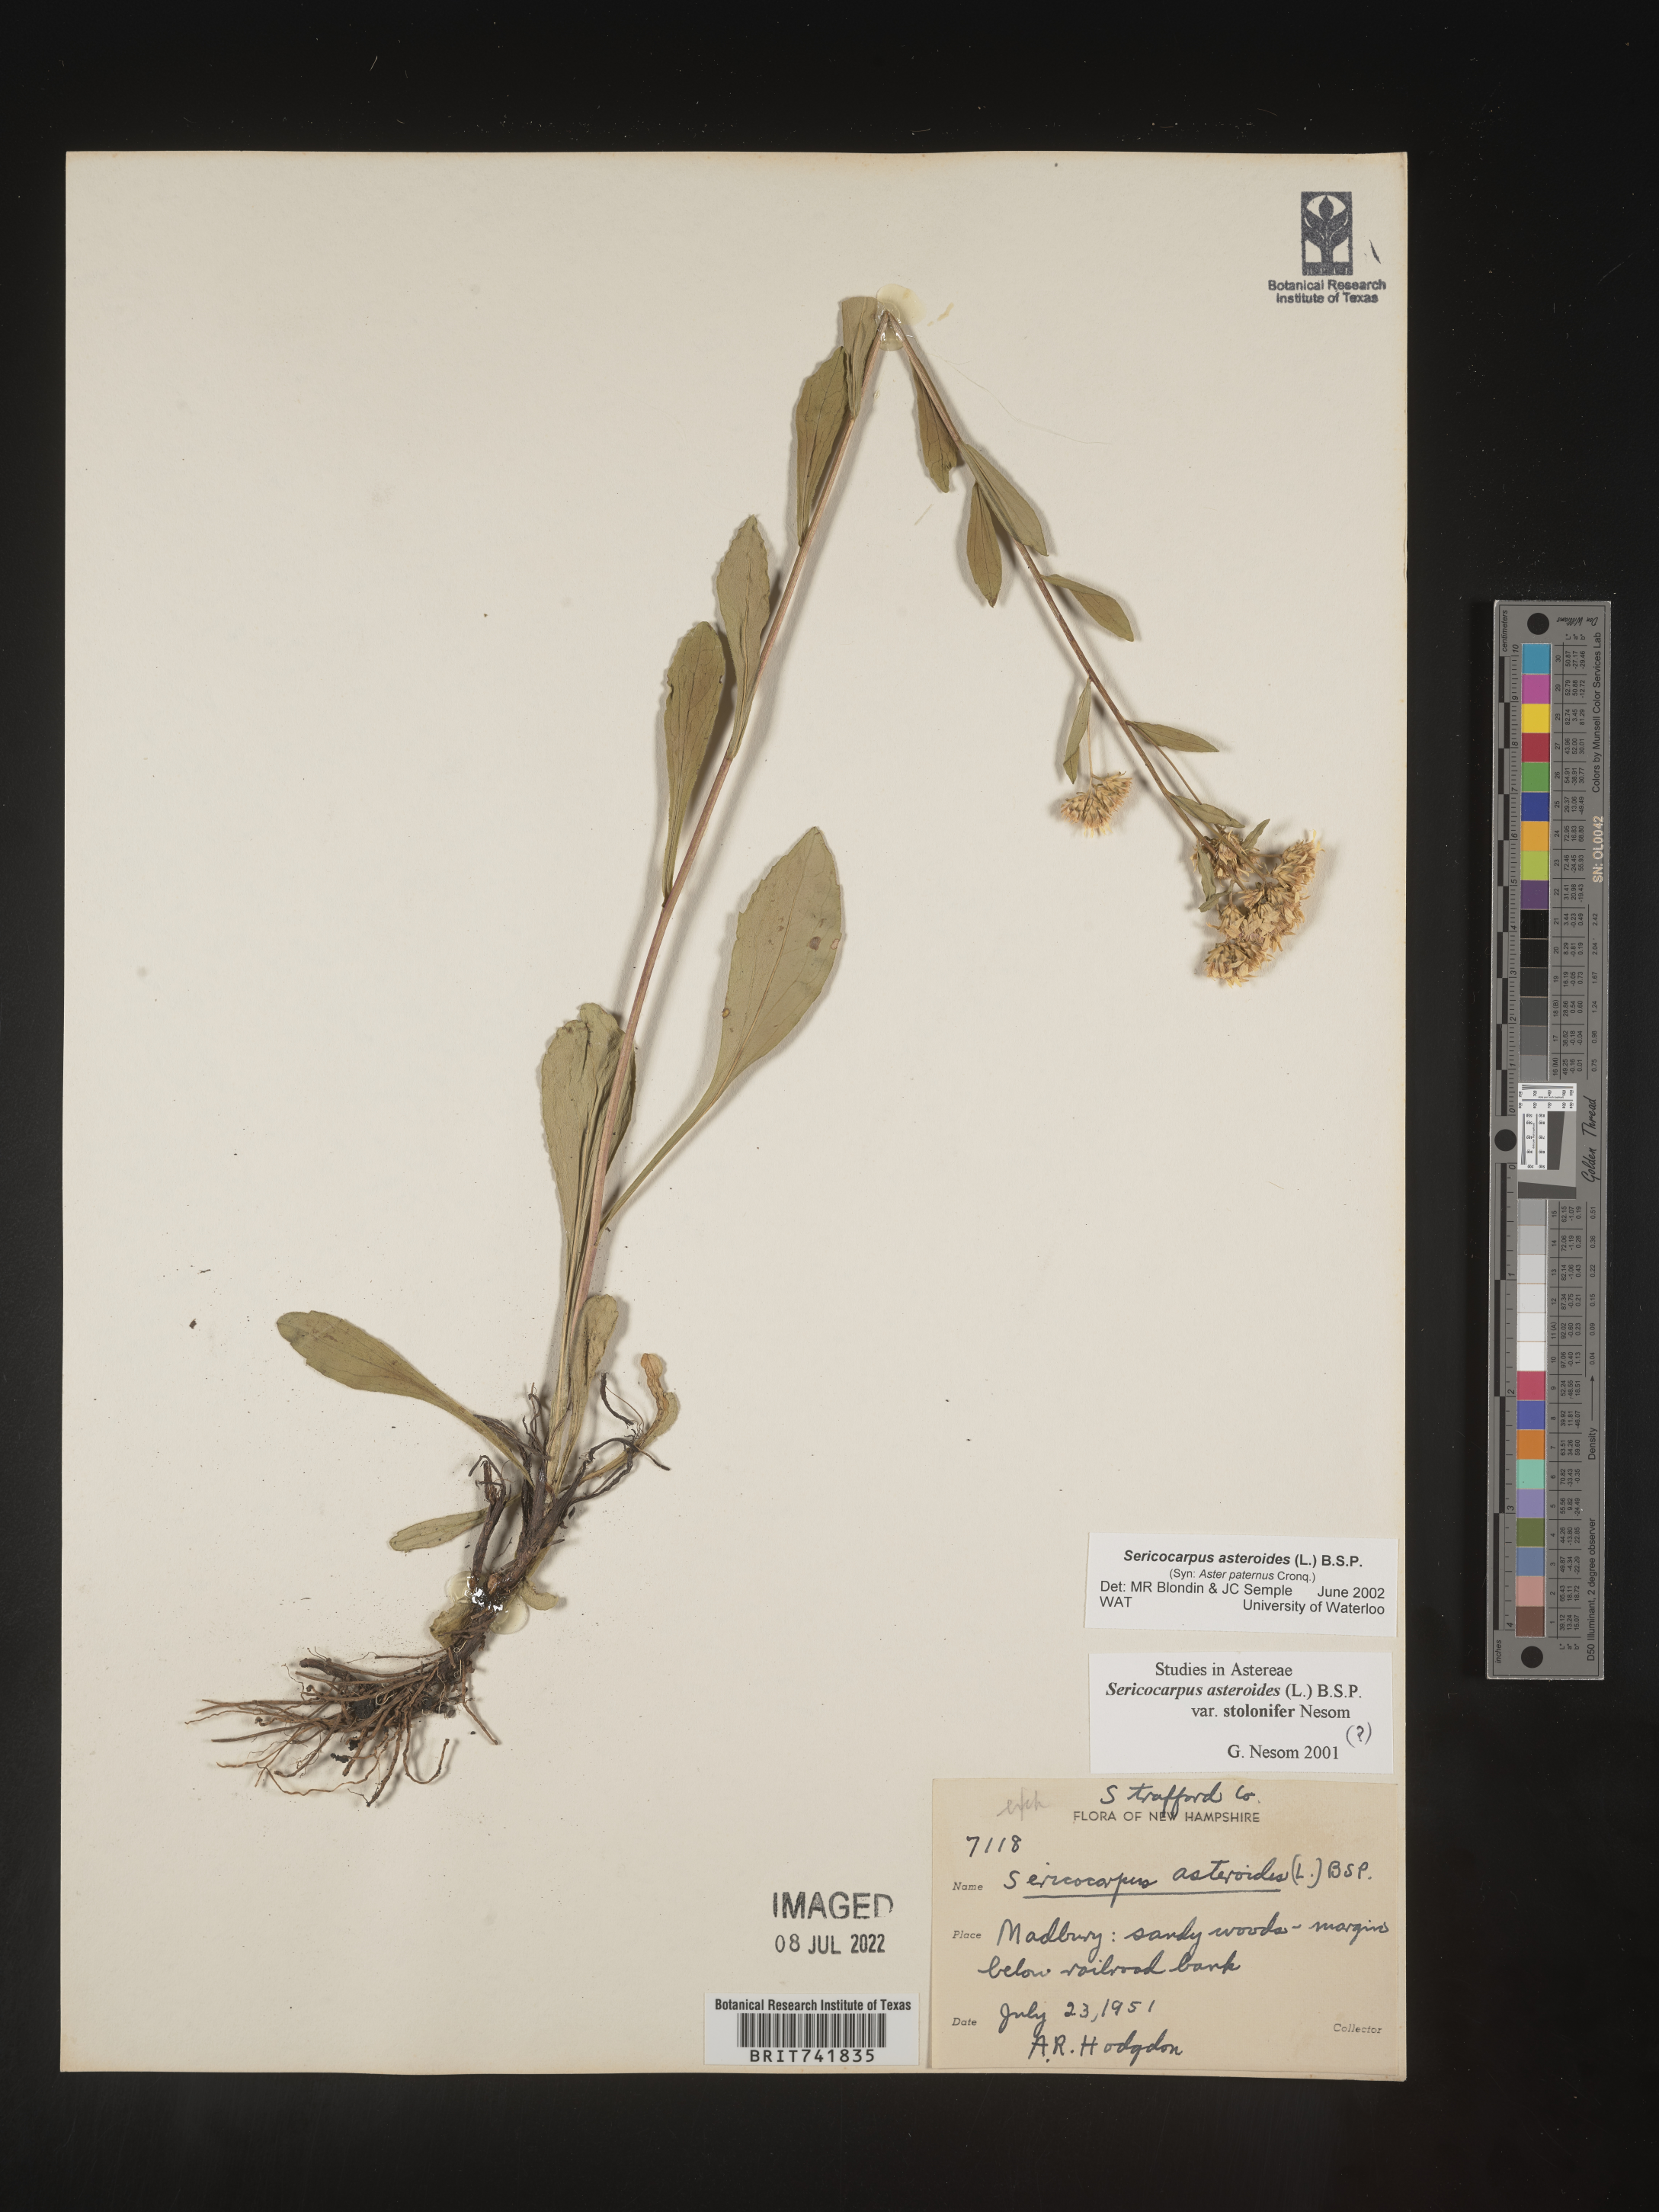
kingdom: Plantae
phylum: Tracheophyta
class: Magnoliopsida
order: Asterales
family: Asteraceae
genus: Sericocarpus
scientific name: Sericocarpus asteroides
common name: Toothed white-top aster
